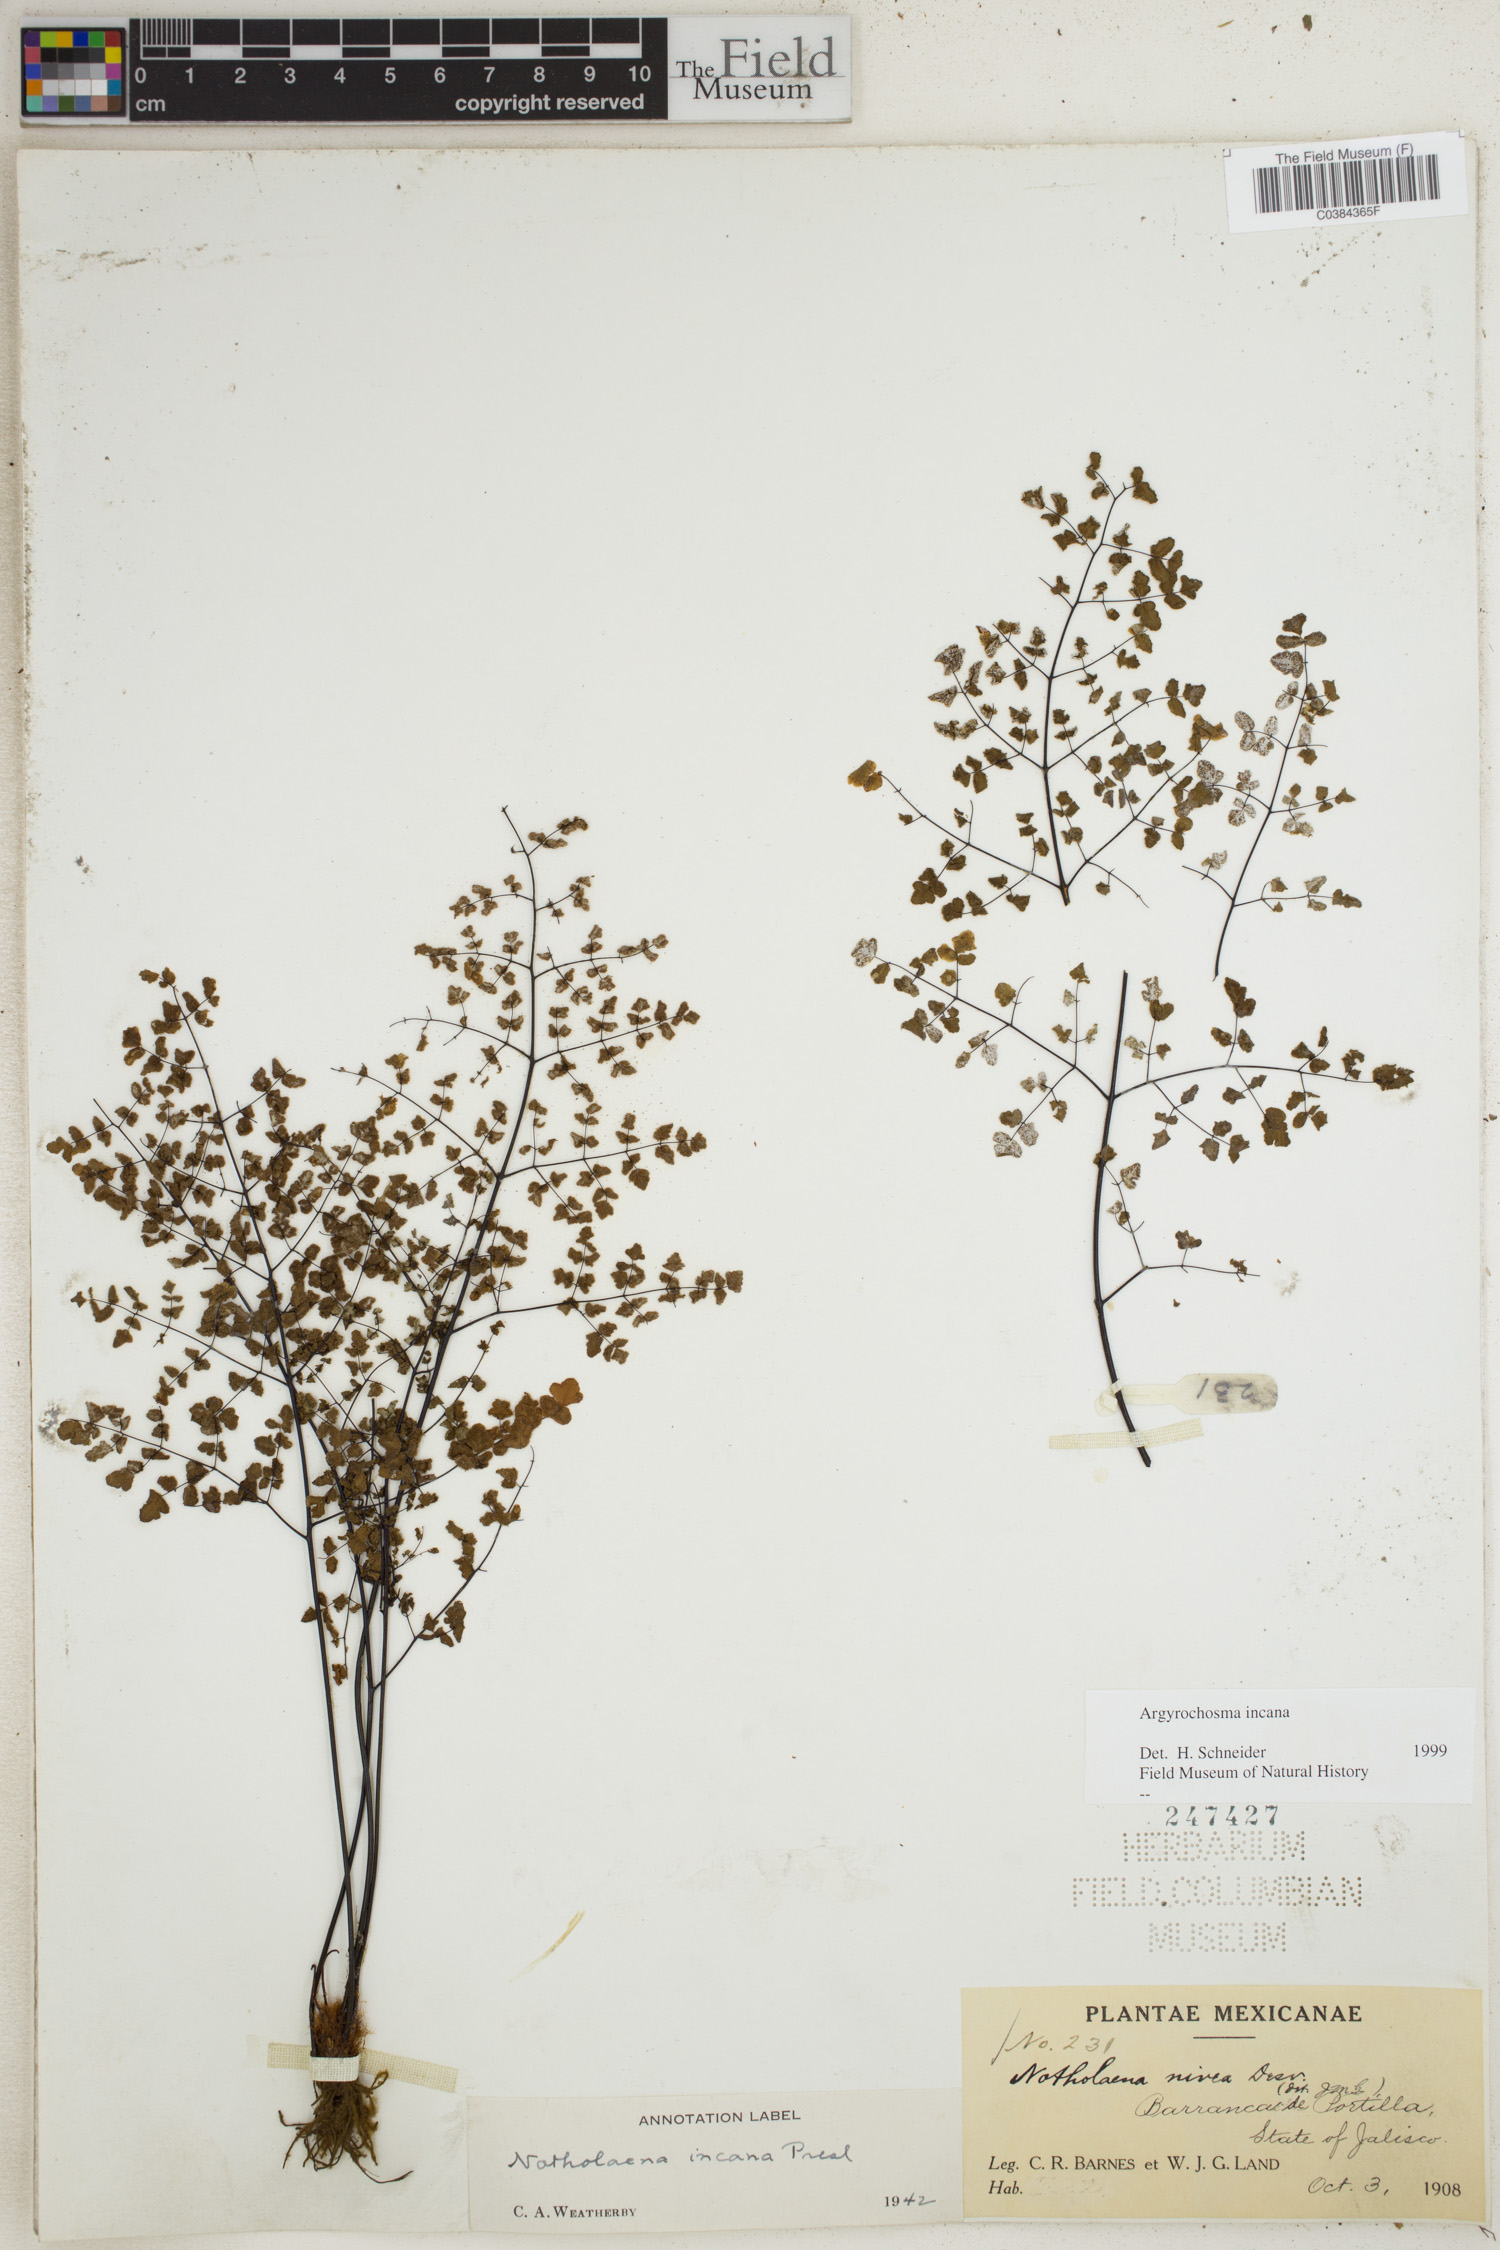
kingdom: Plantae
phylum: Tracheophyta
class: Polypodiopsida
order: Polypodiales
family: Pteridaceae
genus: Argyrochosma
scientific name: Argyrochosma incana
